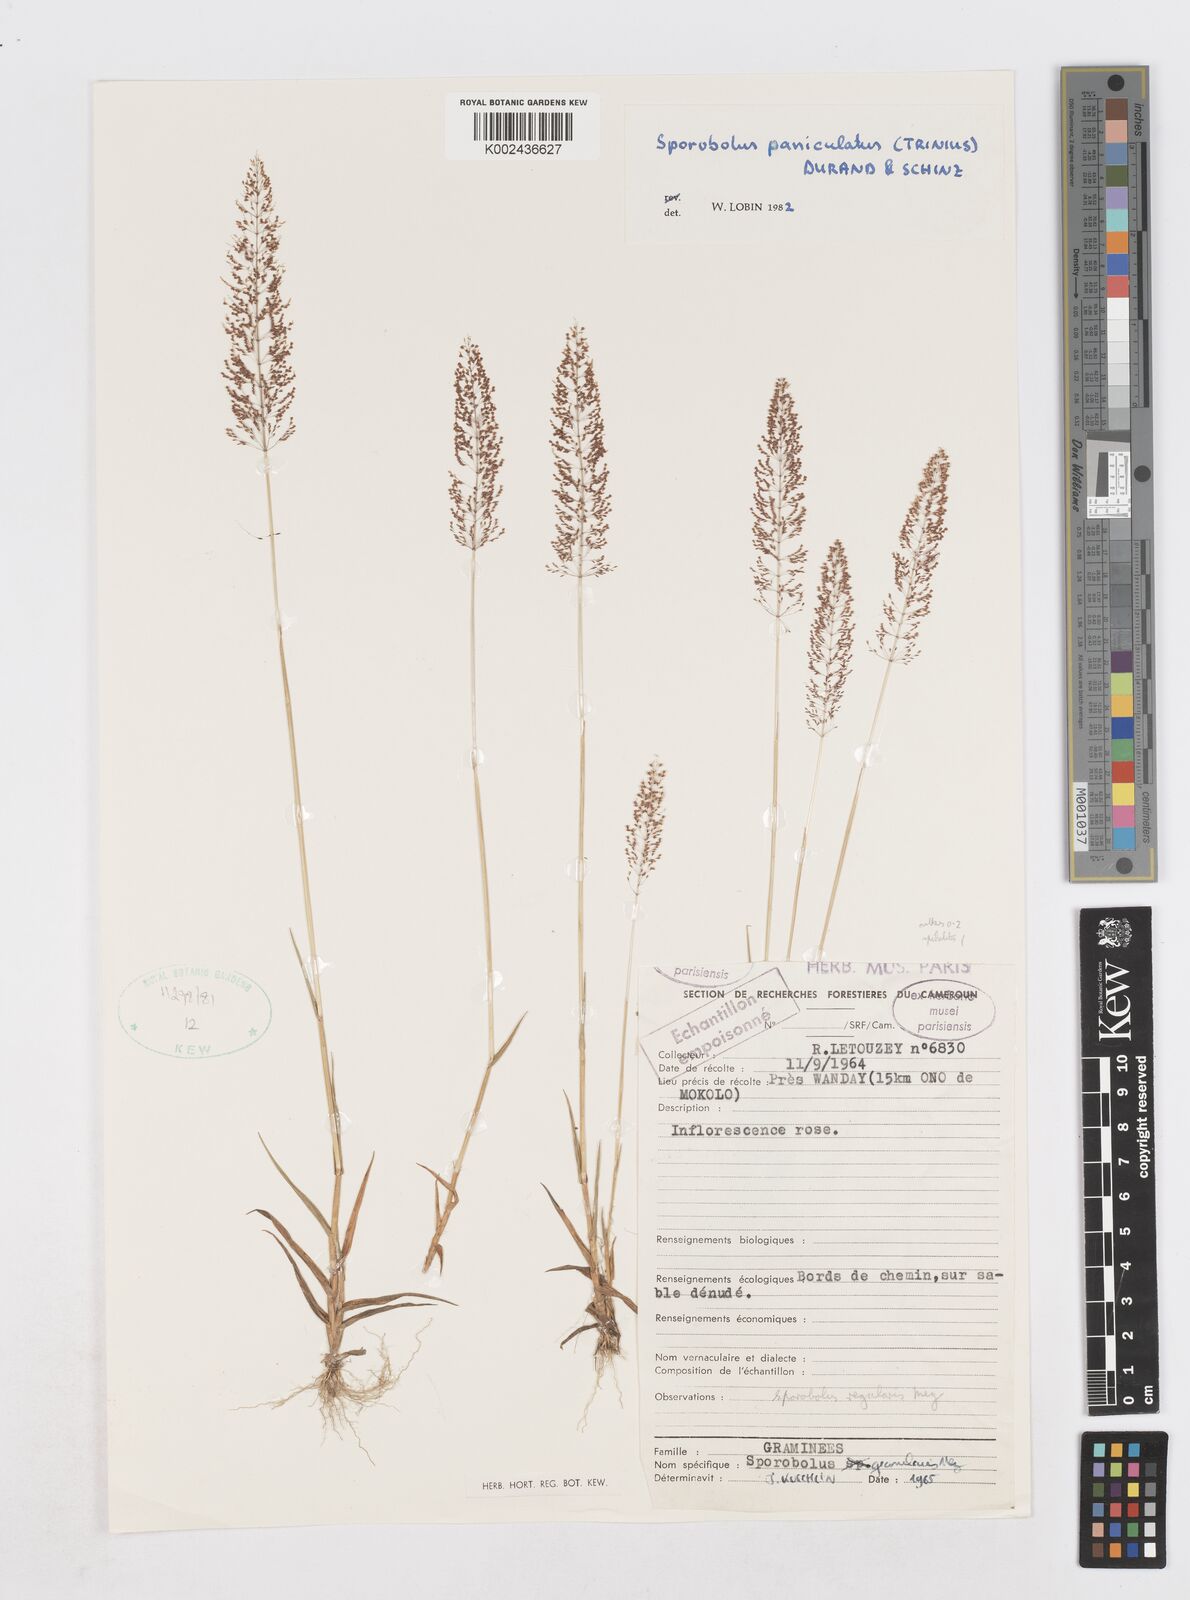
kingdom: Plantae
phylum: Tracheophyta
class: Liliopsida
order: Poales
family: Poaceae
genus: Sporobolus
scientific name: Sporobolus welwitschii
